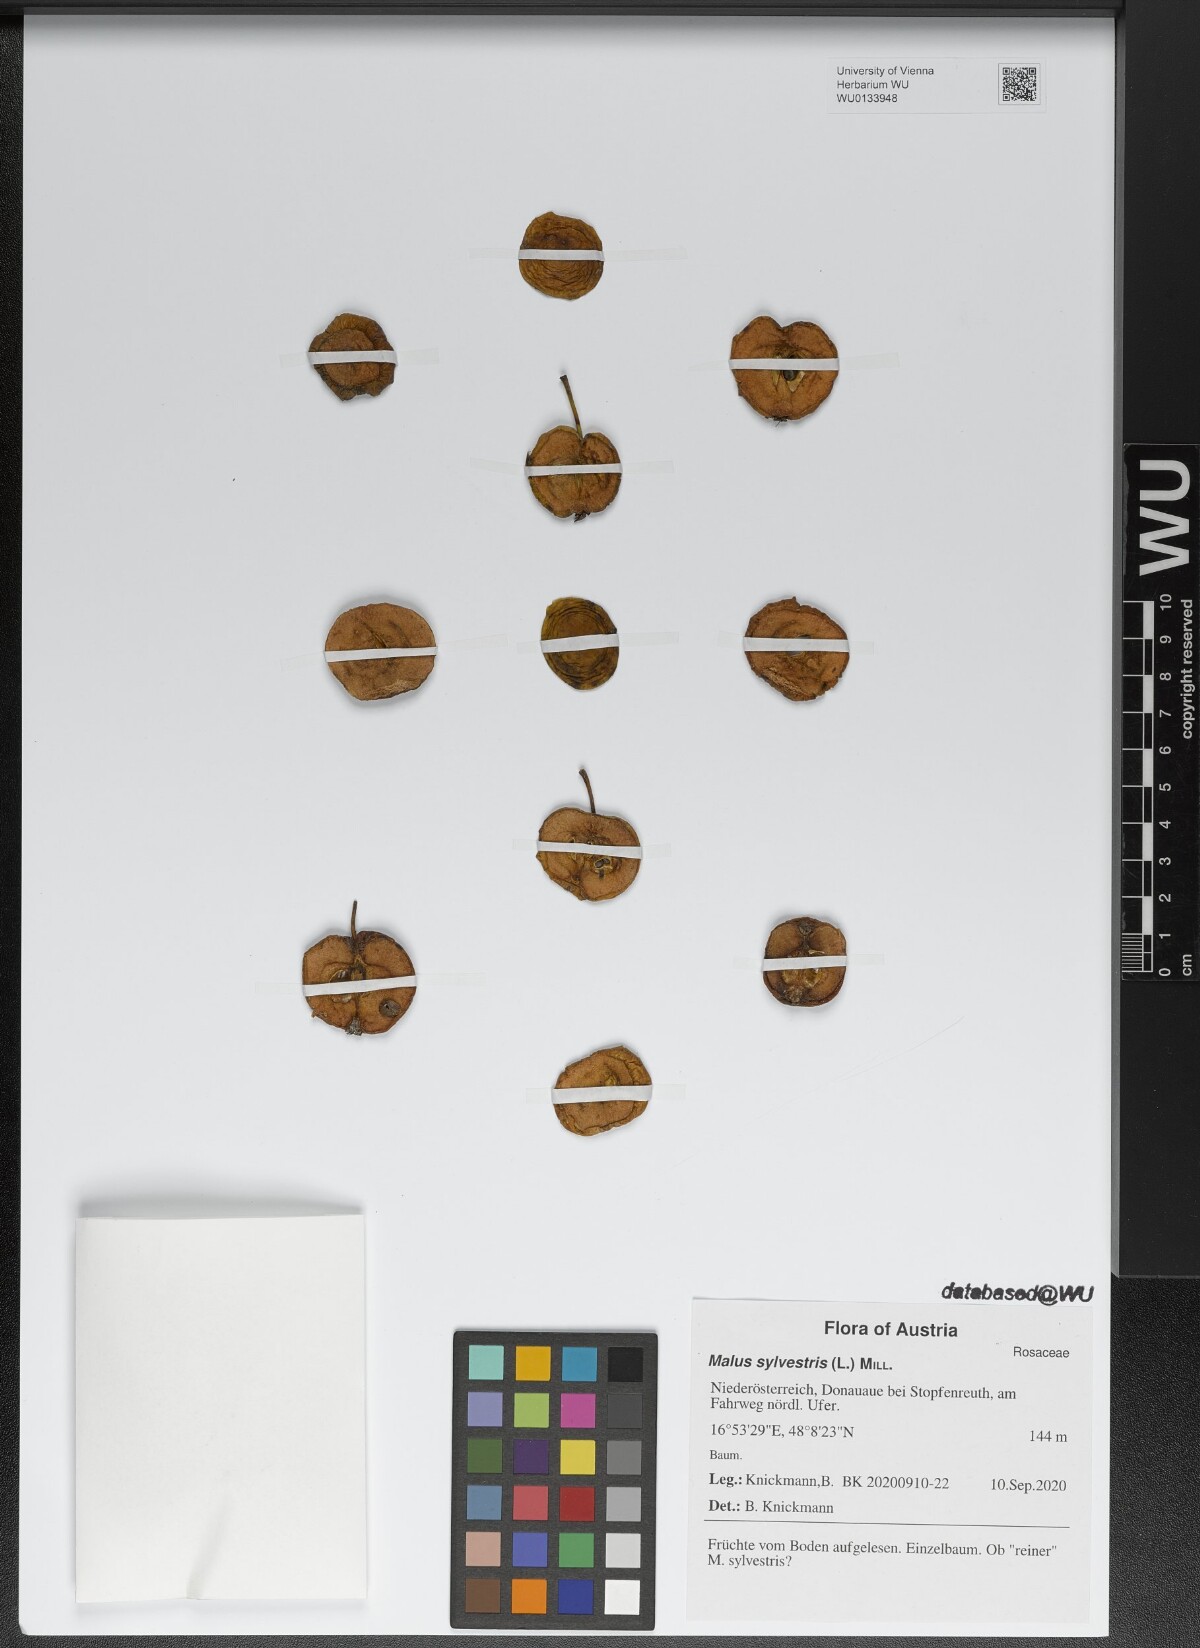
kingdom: Plantae
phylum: Tracheophyta
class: Magnoliopsida
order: Rosales
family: Rosaceae
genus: Malus
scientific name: Malus sylvestris
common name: Crab apple
